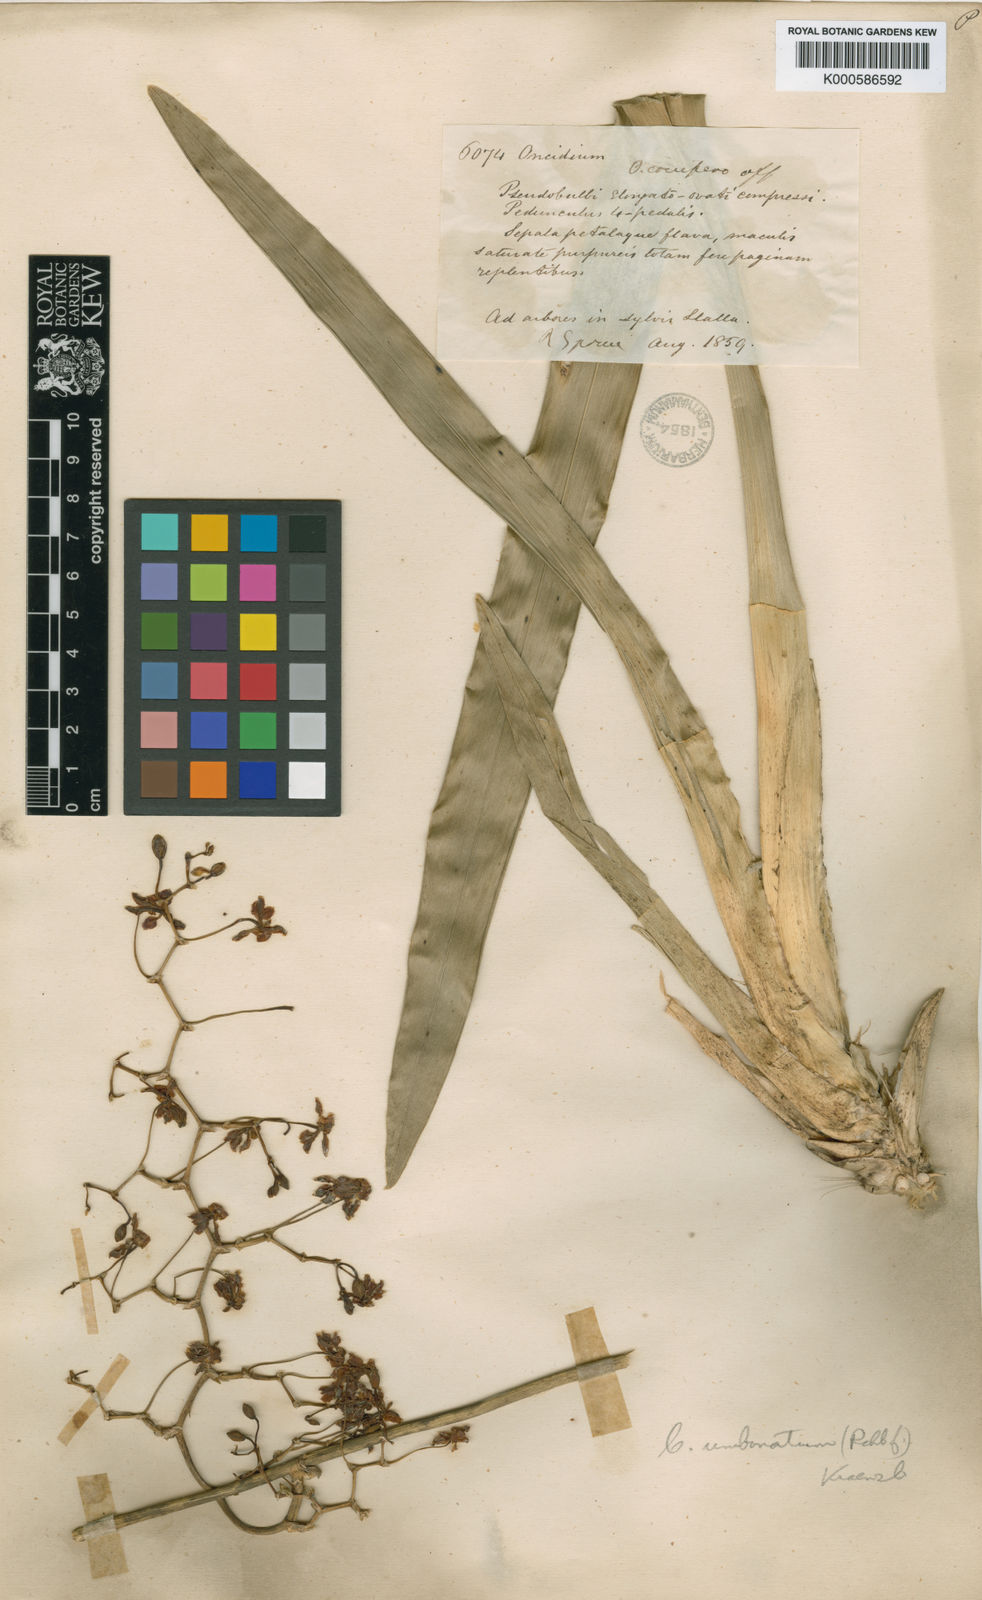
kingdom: Plantae
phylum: Tracheophyta
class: Liliopsida
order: Asparagales
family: Orchidaceae
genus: Cyrtochilum
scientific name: Cyrtochilum umbonatum
